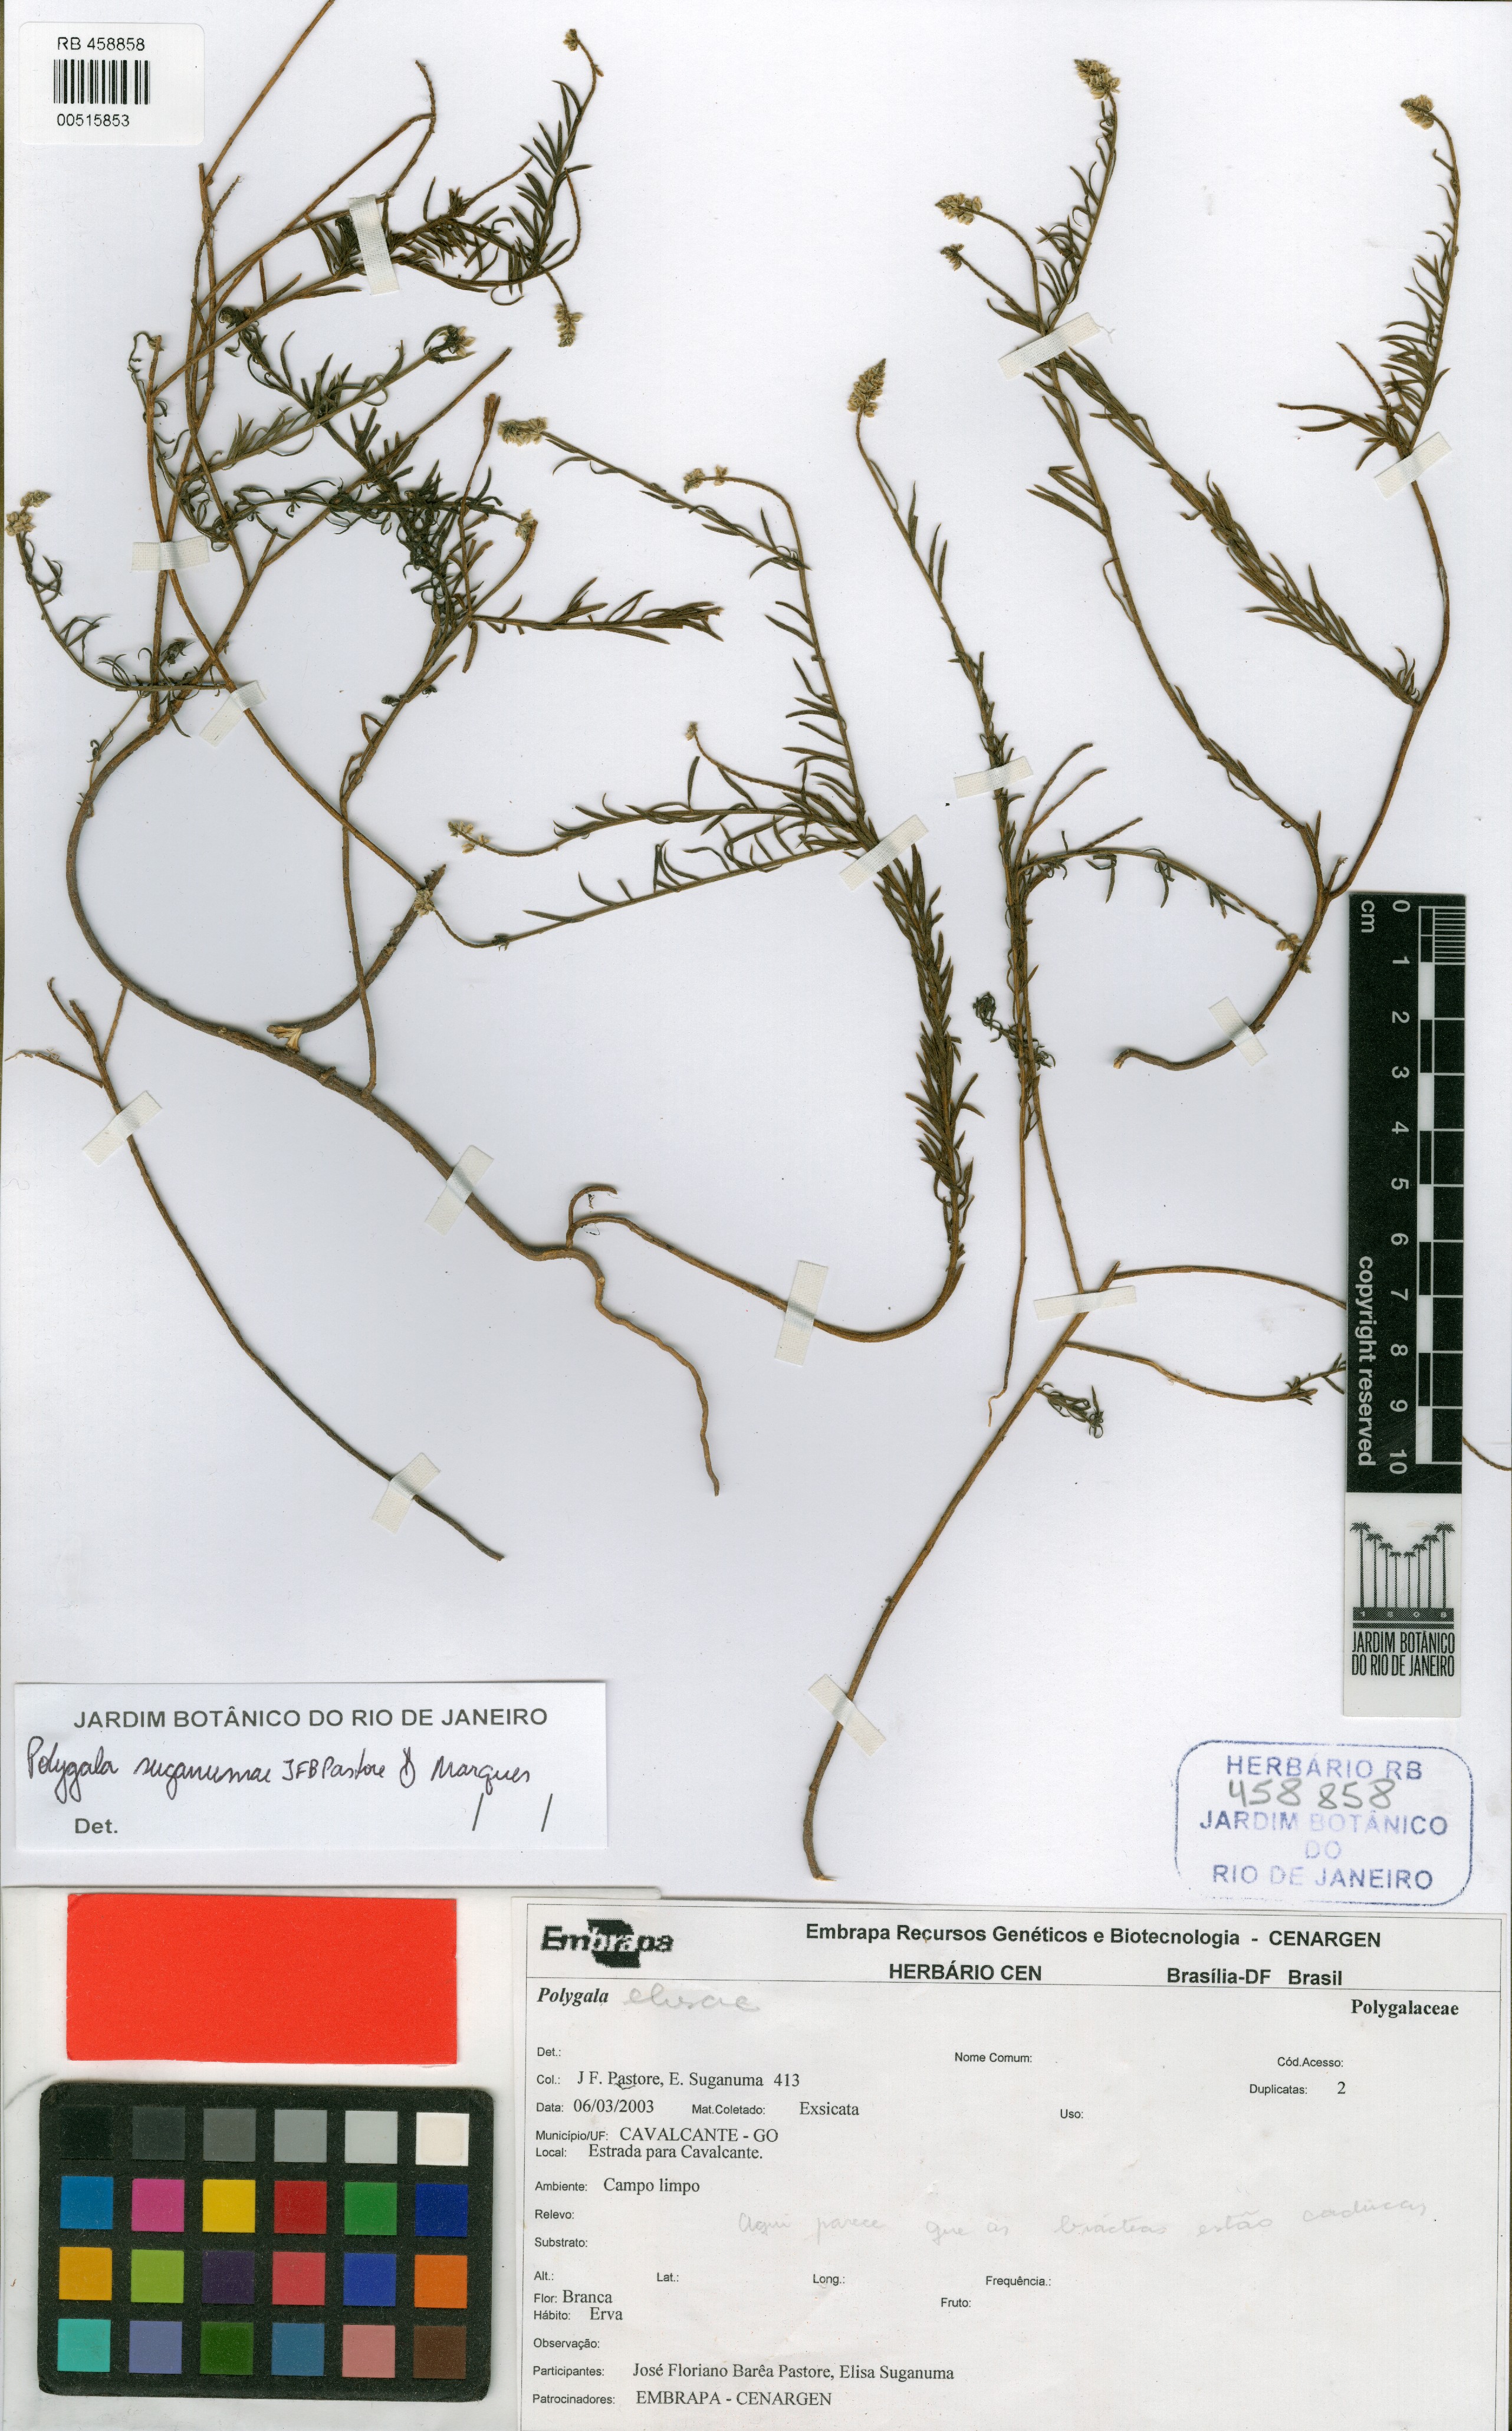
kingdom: Plantae
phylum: Tracheophyta
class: Magnoliopsida
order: Fabales
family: Polygalaceae
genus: Polygala
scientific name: Polygala suganumae
